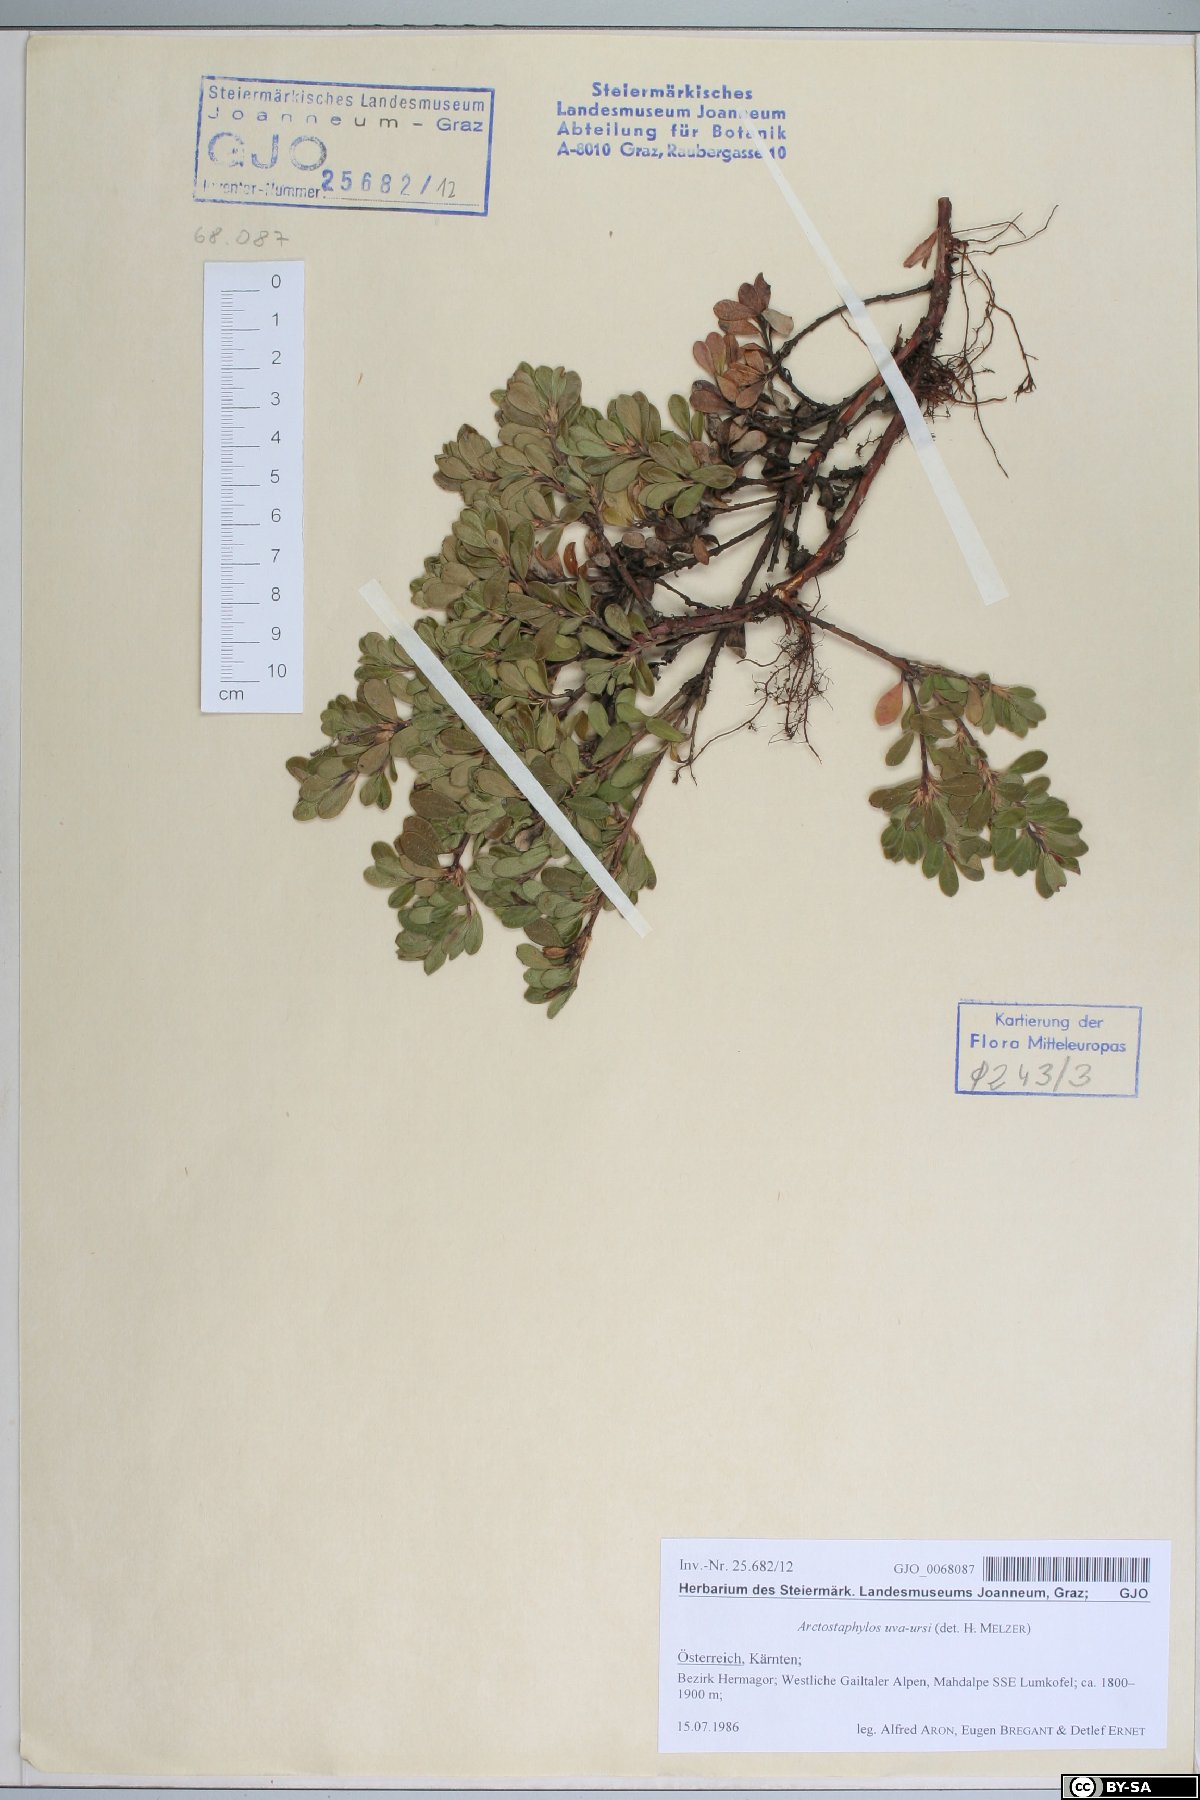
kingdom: Plantae
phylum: Tracheophyta
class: Magnoliopsida
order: Ericales
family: Ericaceae
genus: Arctostaphylos
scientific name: Arctostaphylos uva-ursi
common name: Bearberry
